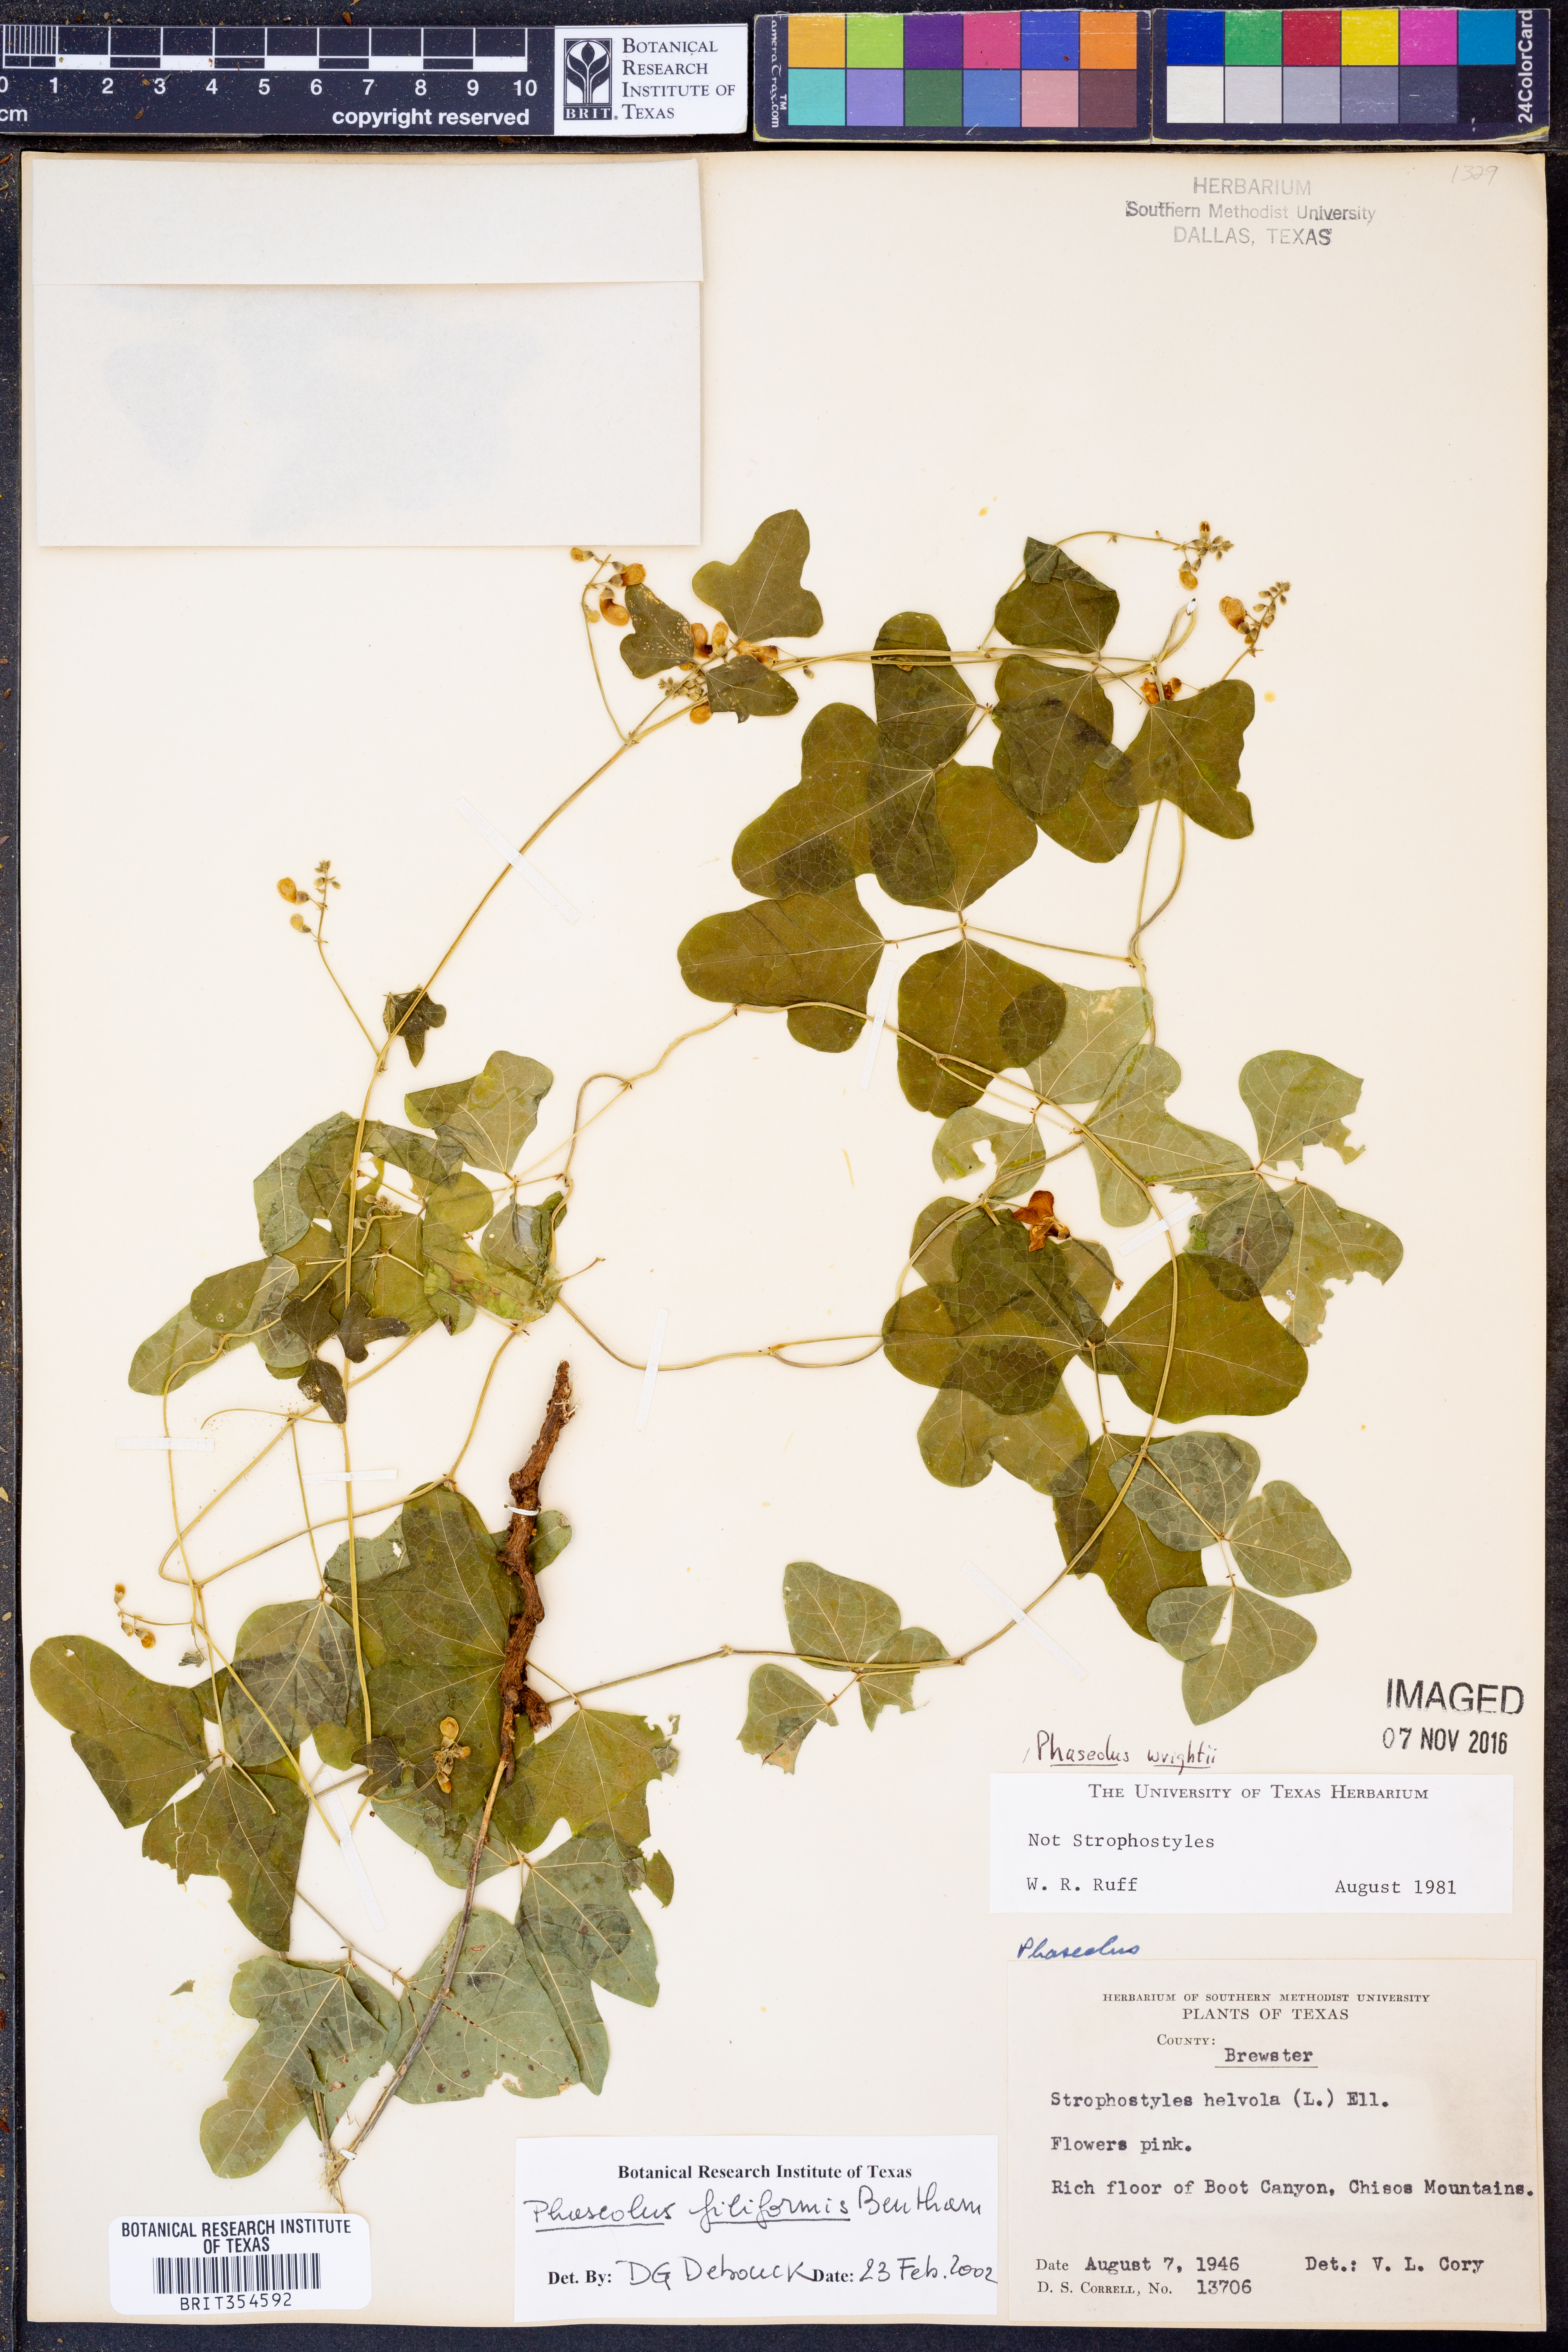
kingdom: Plantae
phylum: Tracheophyta
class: Magnoliopsida
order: Fabales
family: Fabaceae
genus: Phaseolus
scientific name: Phaseolus filiformis
